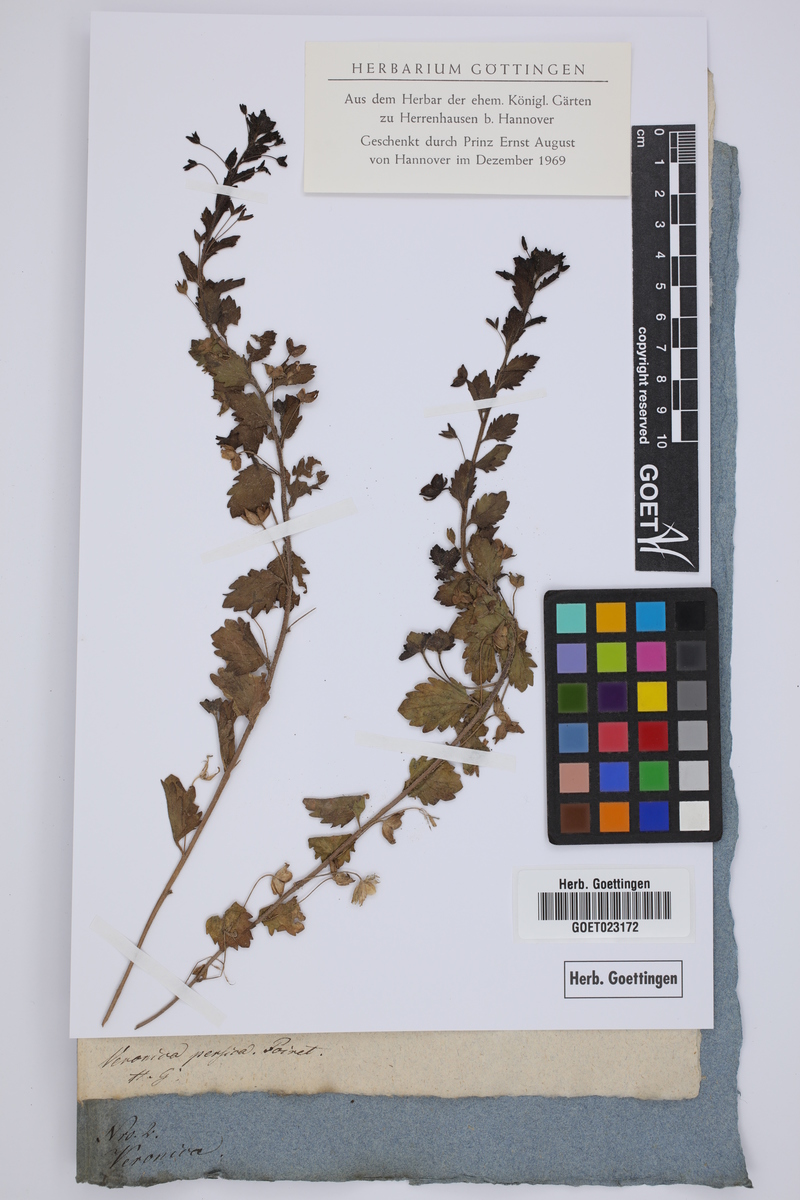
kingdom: Plantae
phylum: Tracheophyta
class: Magnoliopsida
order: Lamiales
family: Plantaginaceae
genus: Veronica
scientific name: Veronica persica
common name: Common field-speedwell
